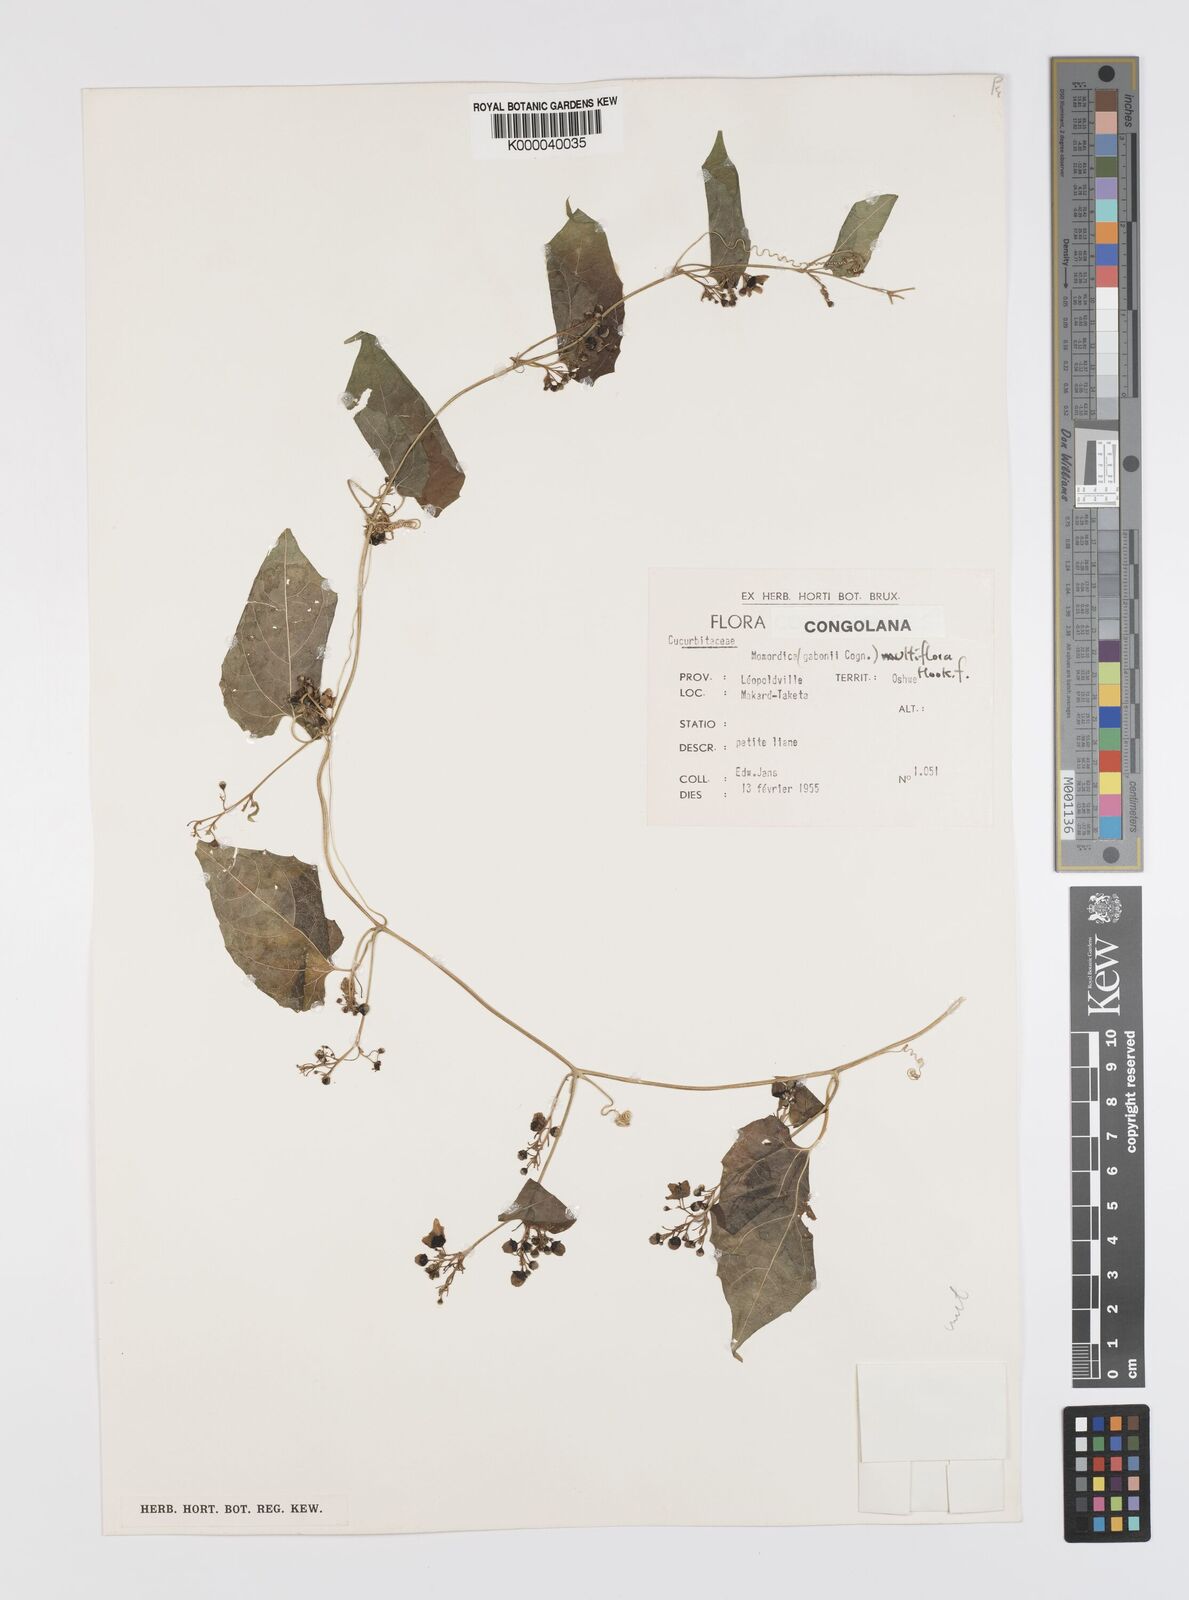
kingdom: Plantae
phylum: Tracheophyta
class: Magnoliopsida
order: Cucurbitales
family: Cucurbitaceae
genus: Momordica
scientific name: Momordica multiflora
